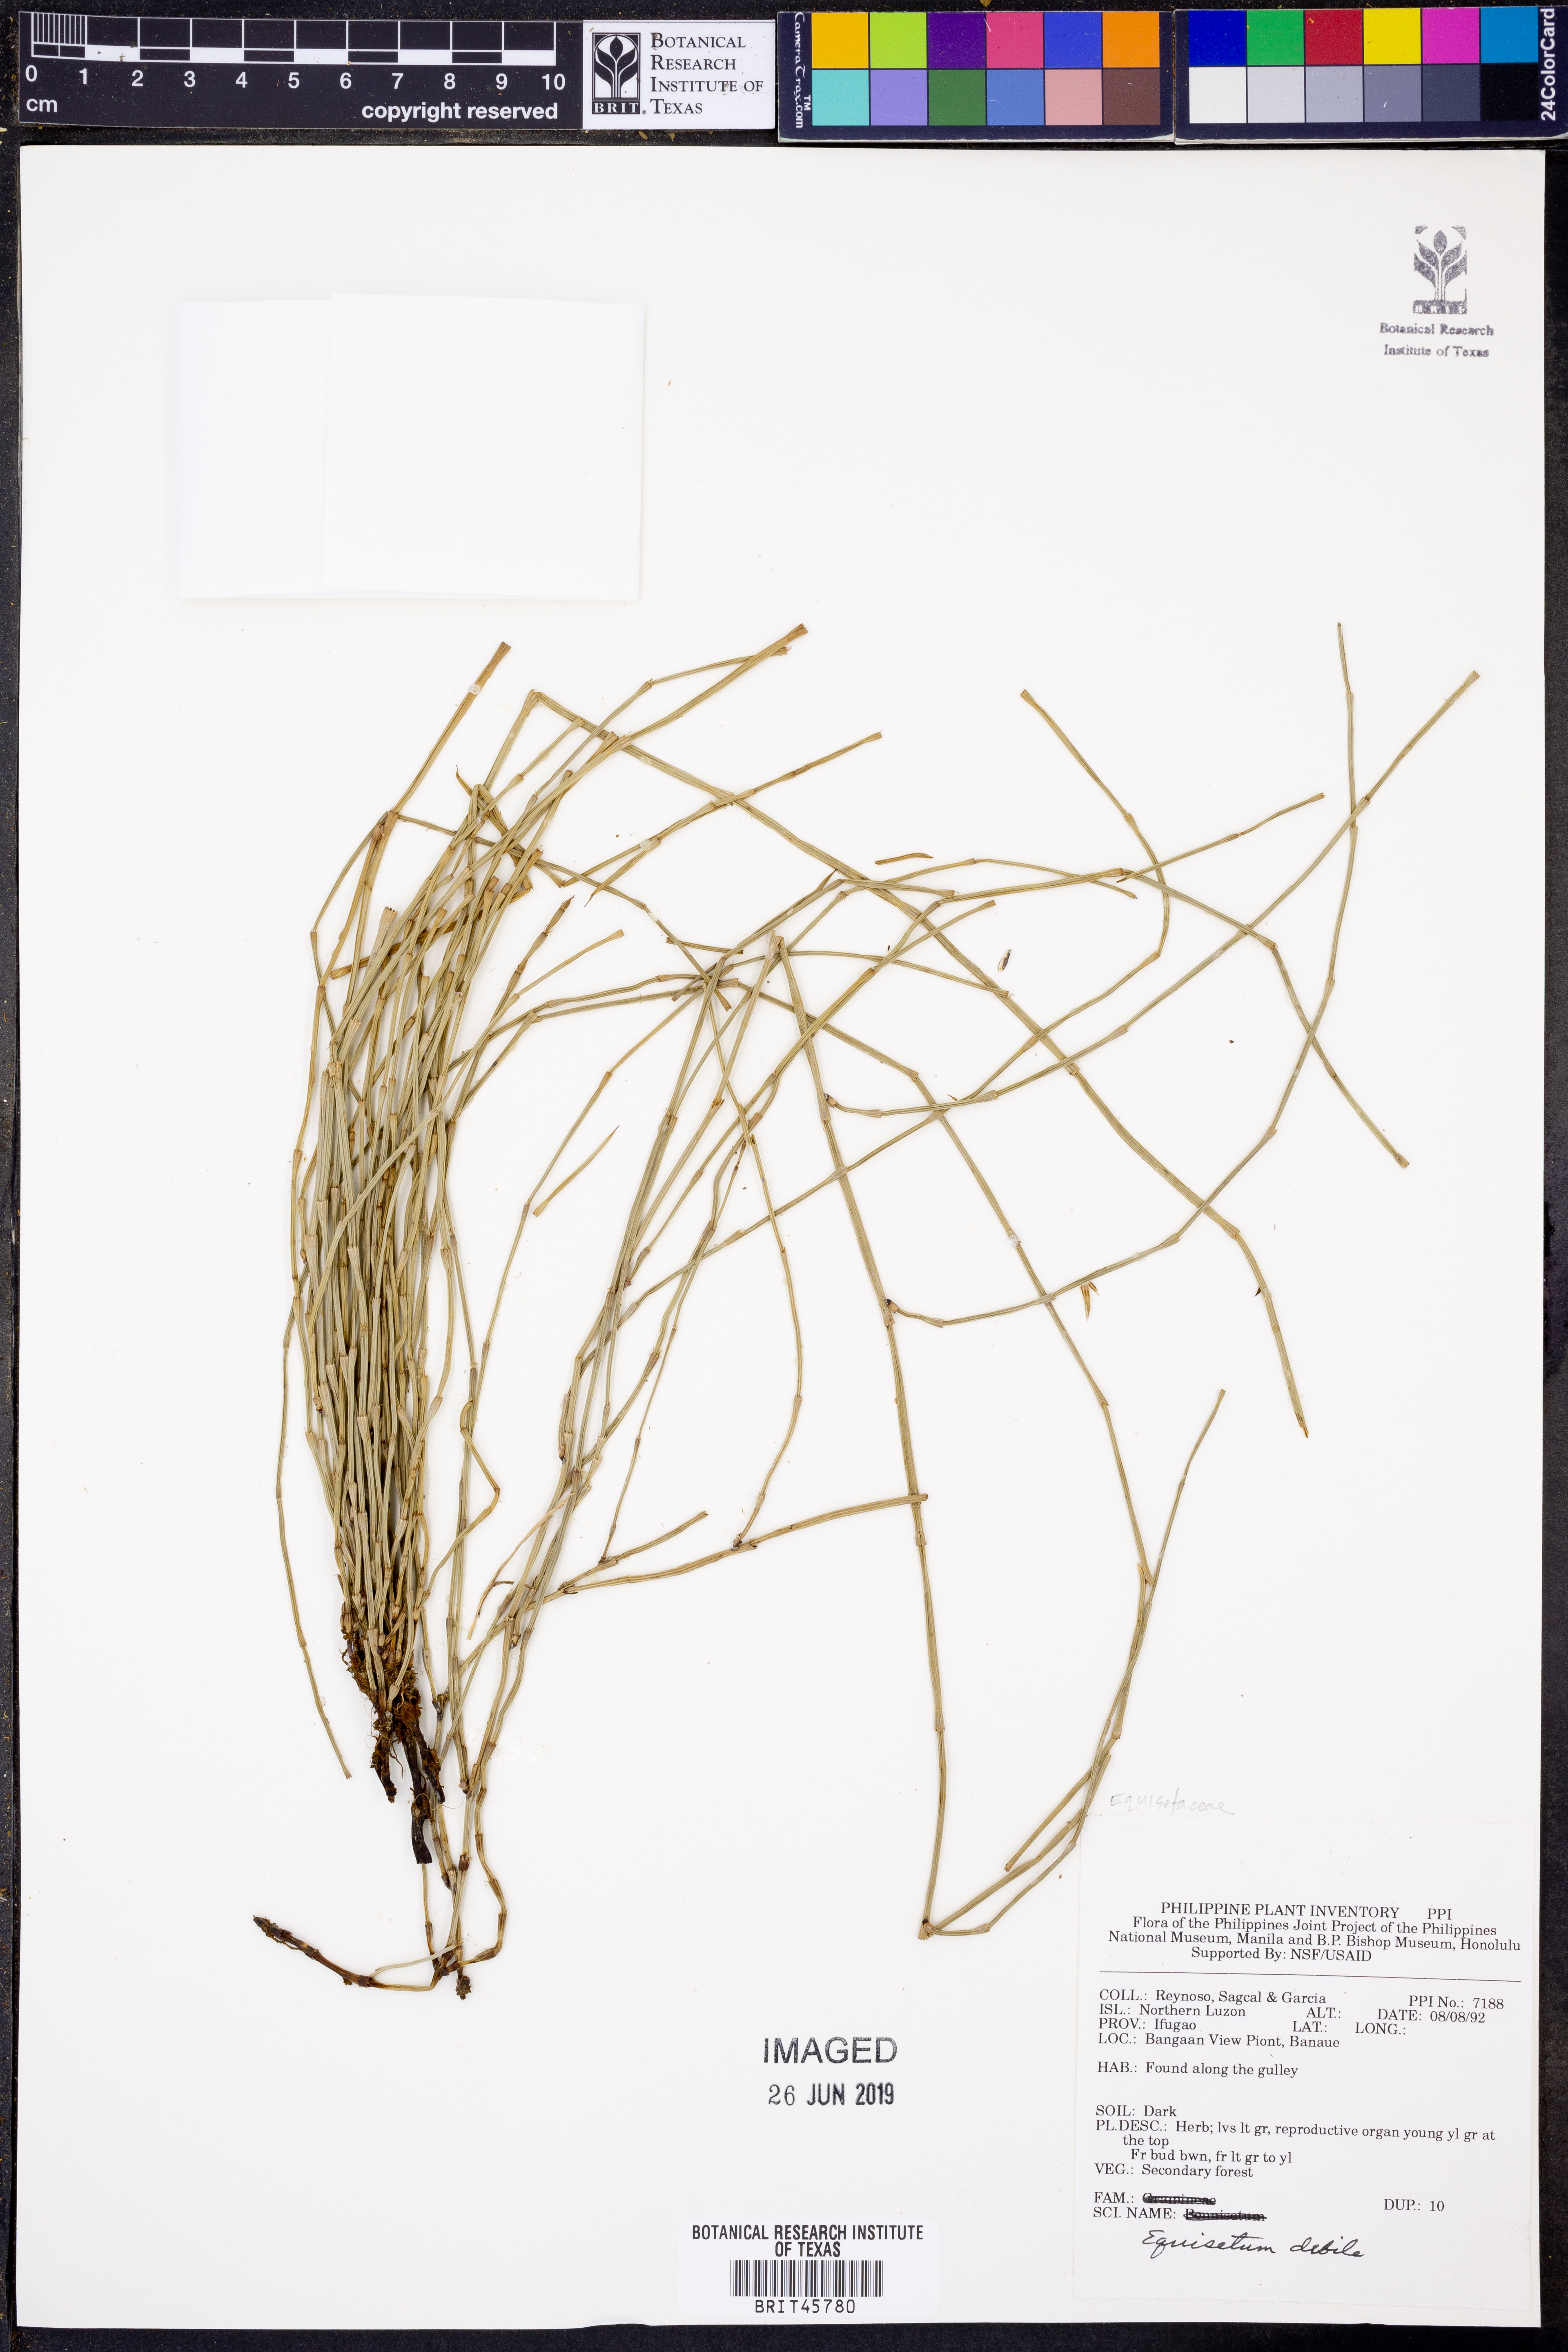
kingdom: Plantae
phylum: Tracheophyta
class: Polypodiopsida
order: Equisetales
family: Equisetaceae
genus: Equisetum
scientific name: Equisetum ramosissimum
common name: Branched horsetail
